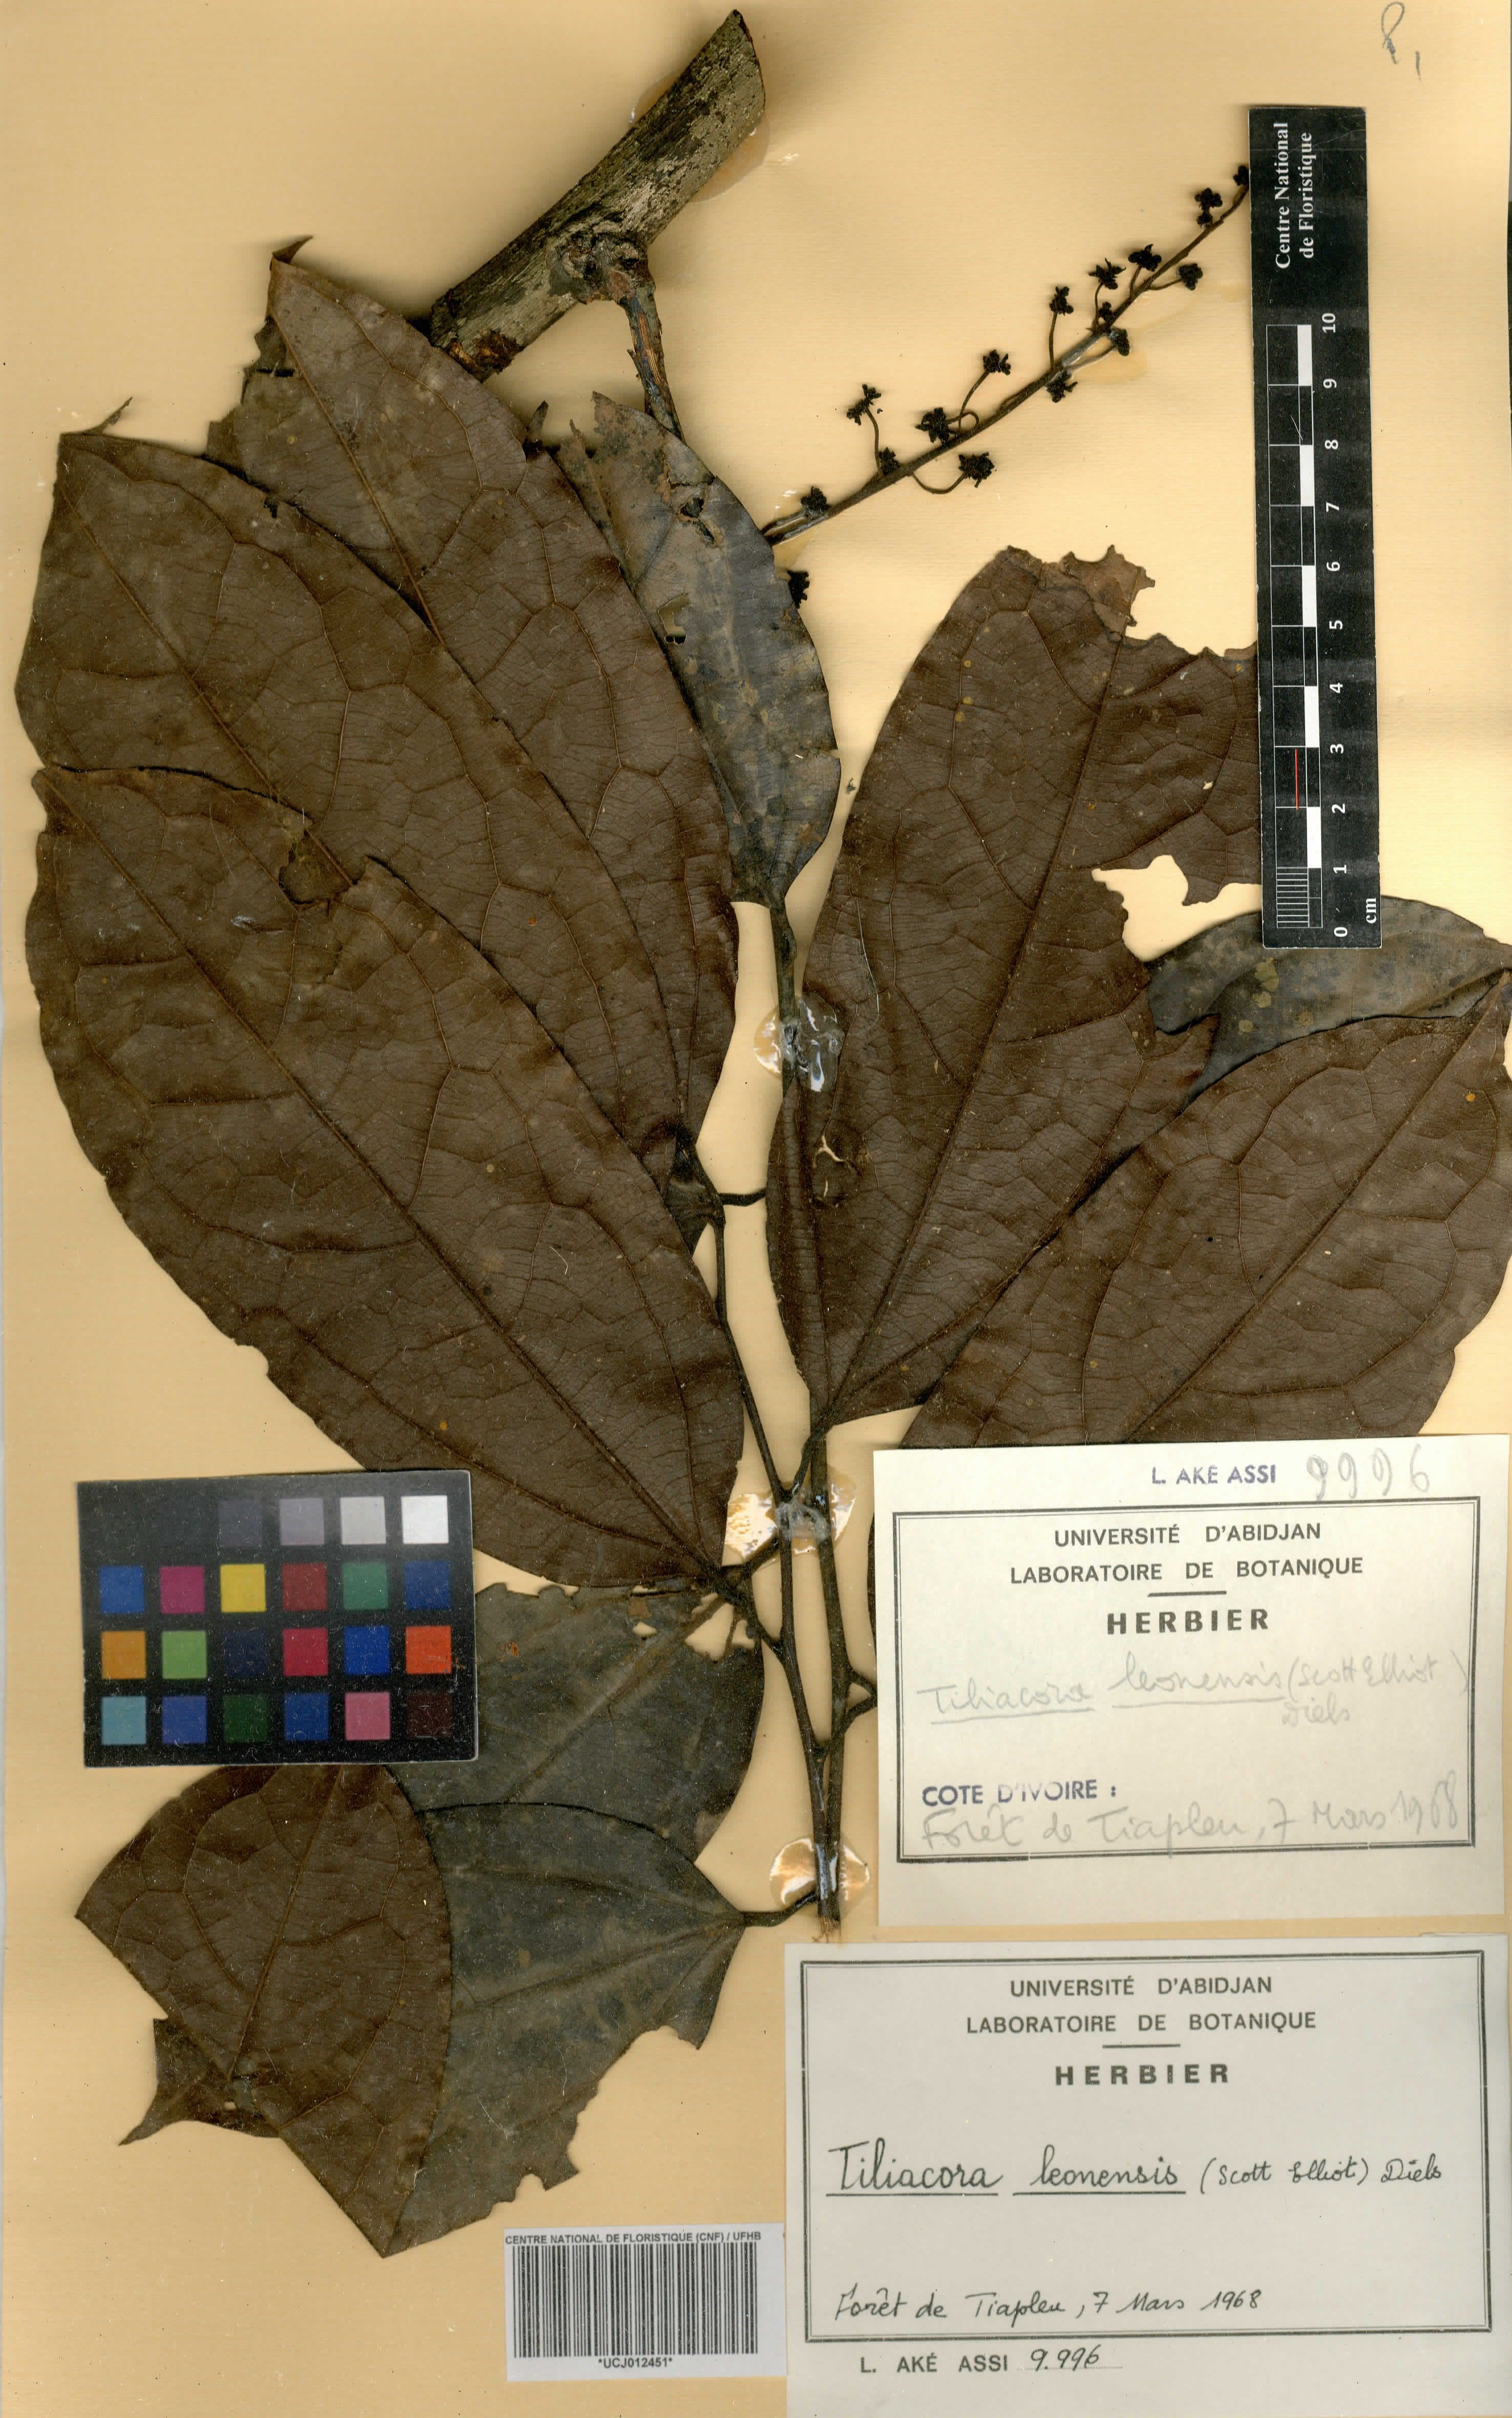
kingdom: Plantae
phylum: Tracheophyta
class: Magnoliopsida
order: Ranunculales
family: Menispermaceae
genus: Tiliacora
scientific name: Tiliacora leonensis
